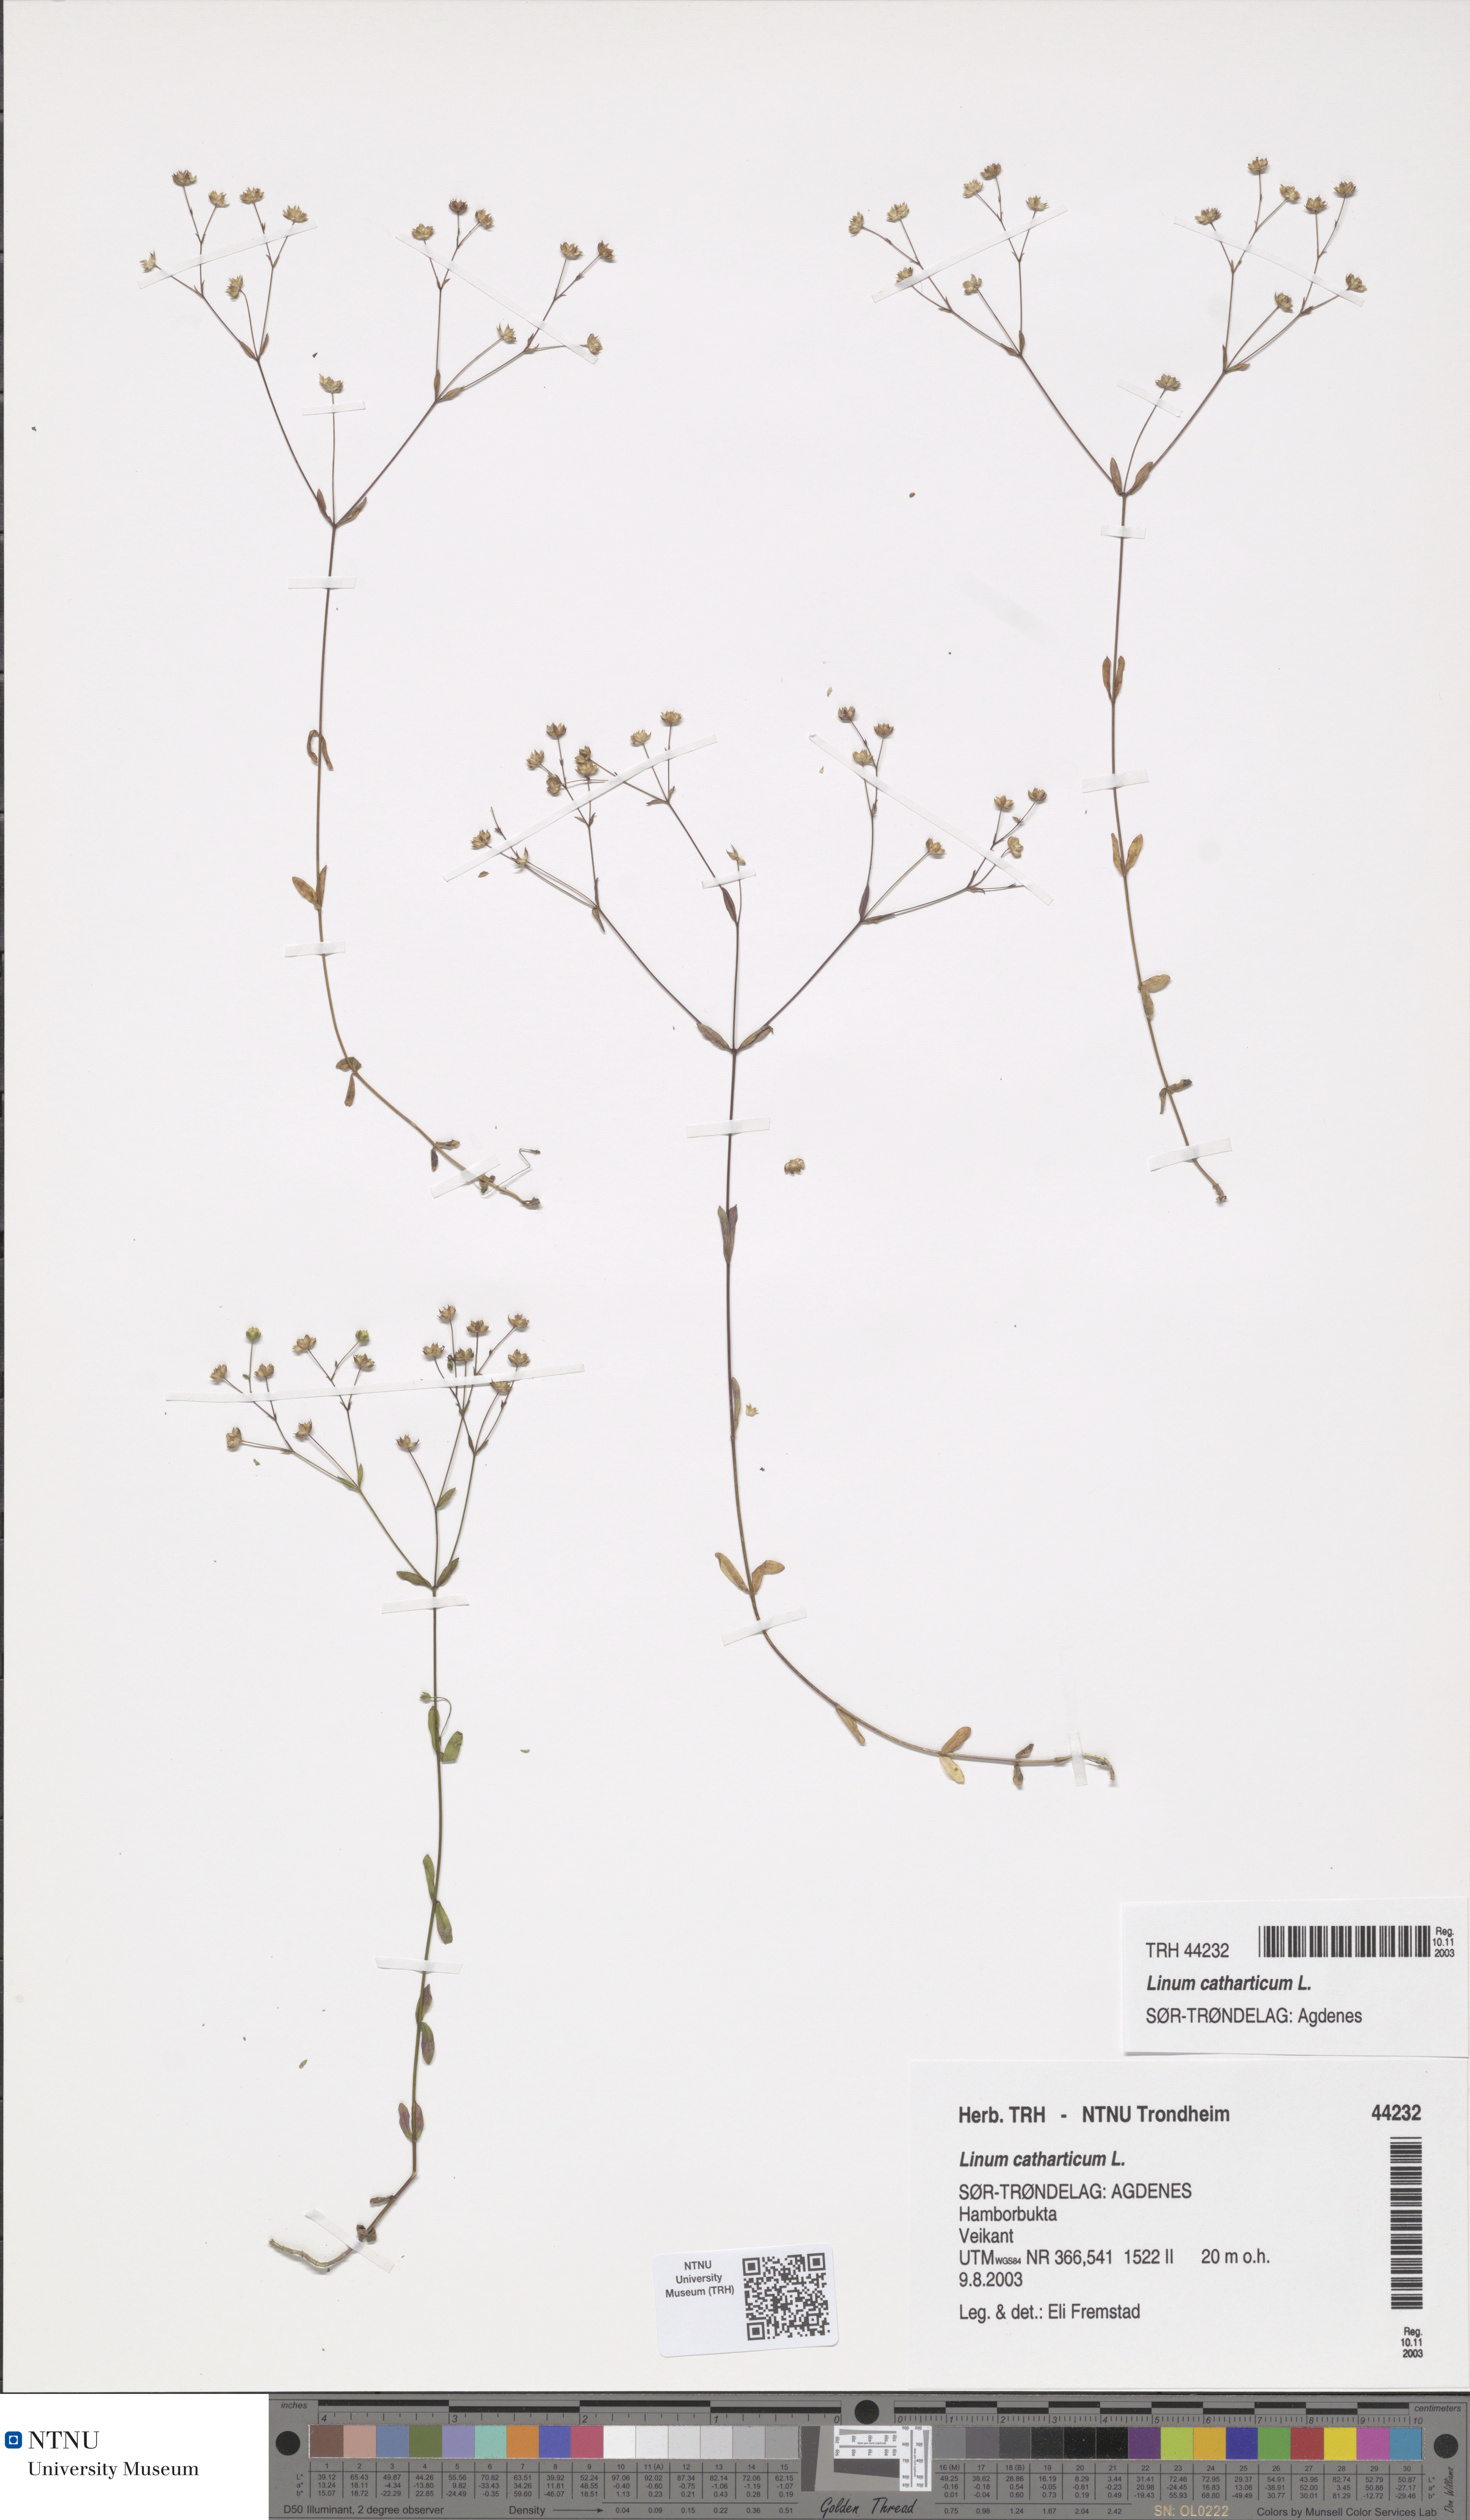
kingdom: Plantae
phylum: Tracheophyta
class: Magnoliopsida
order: Malpighiales
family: Linaceae
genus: Linum
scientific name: Linum catharticum
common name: Fairy flax
